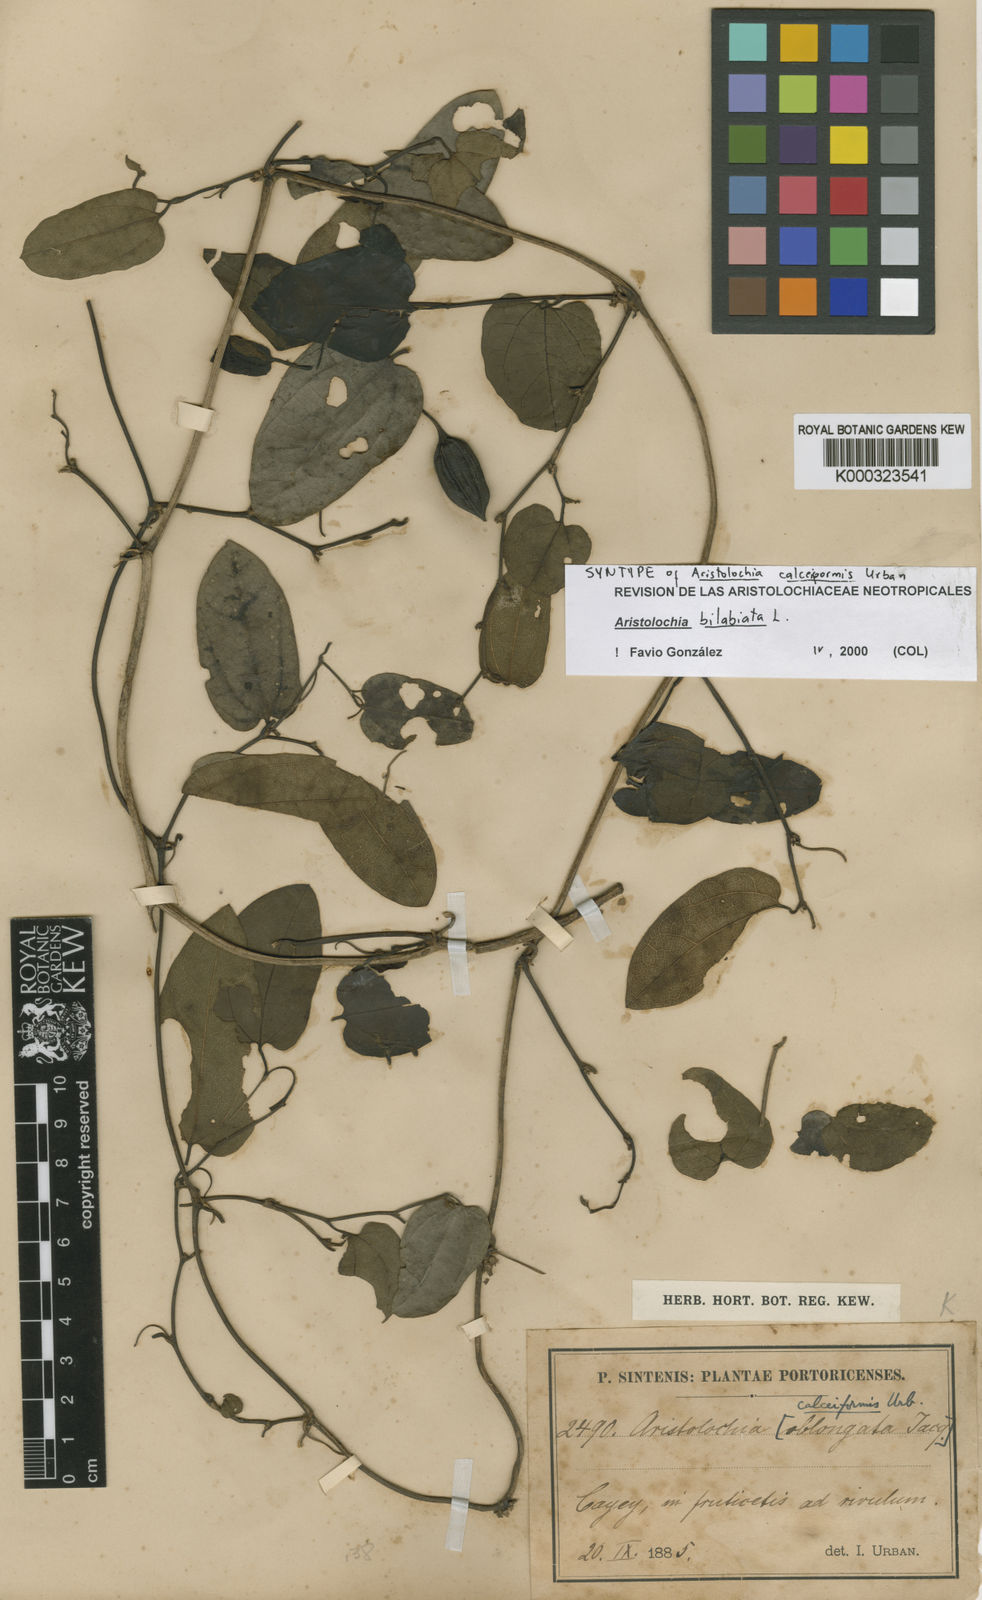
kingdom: Plantae
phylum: Tracheophyta
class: Magnoliopsida
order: Piperales
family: Aristolochiaceae
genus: Aristolochia
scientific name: Aristolochia bilabiata
